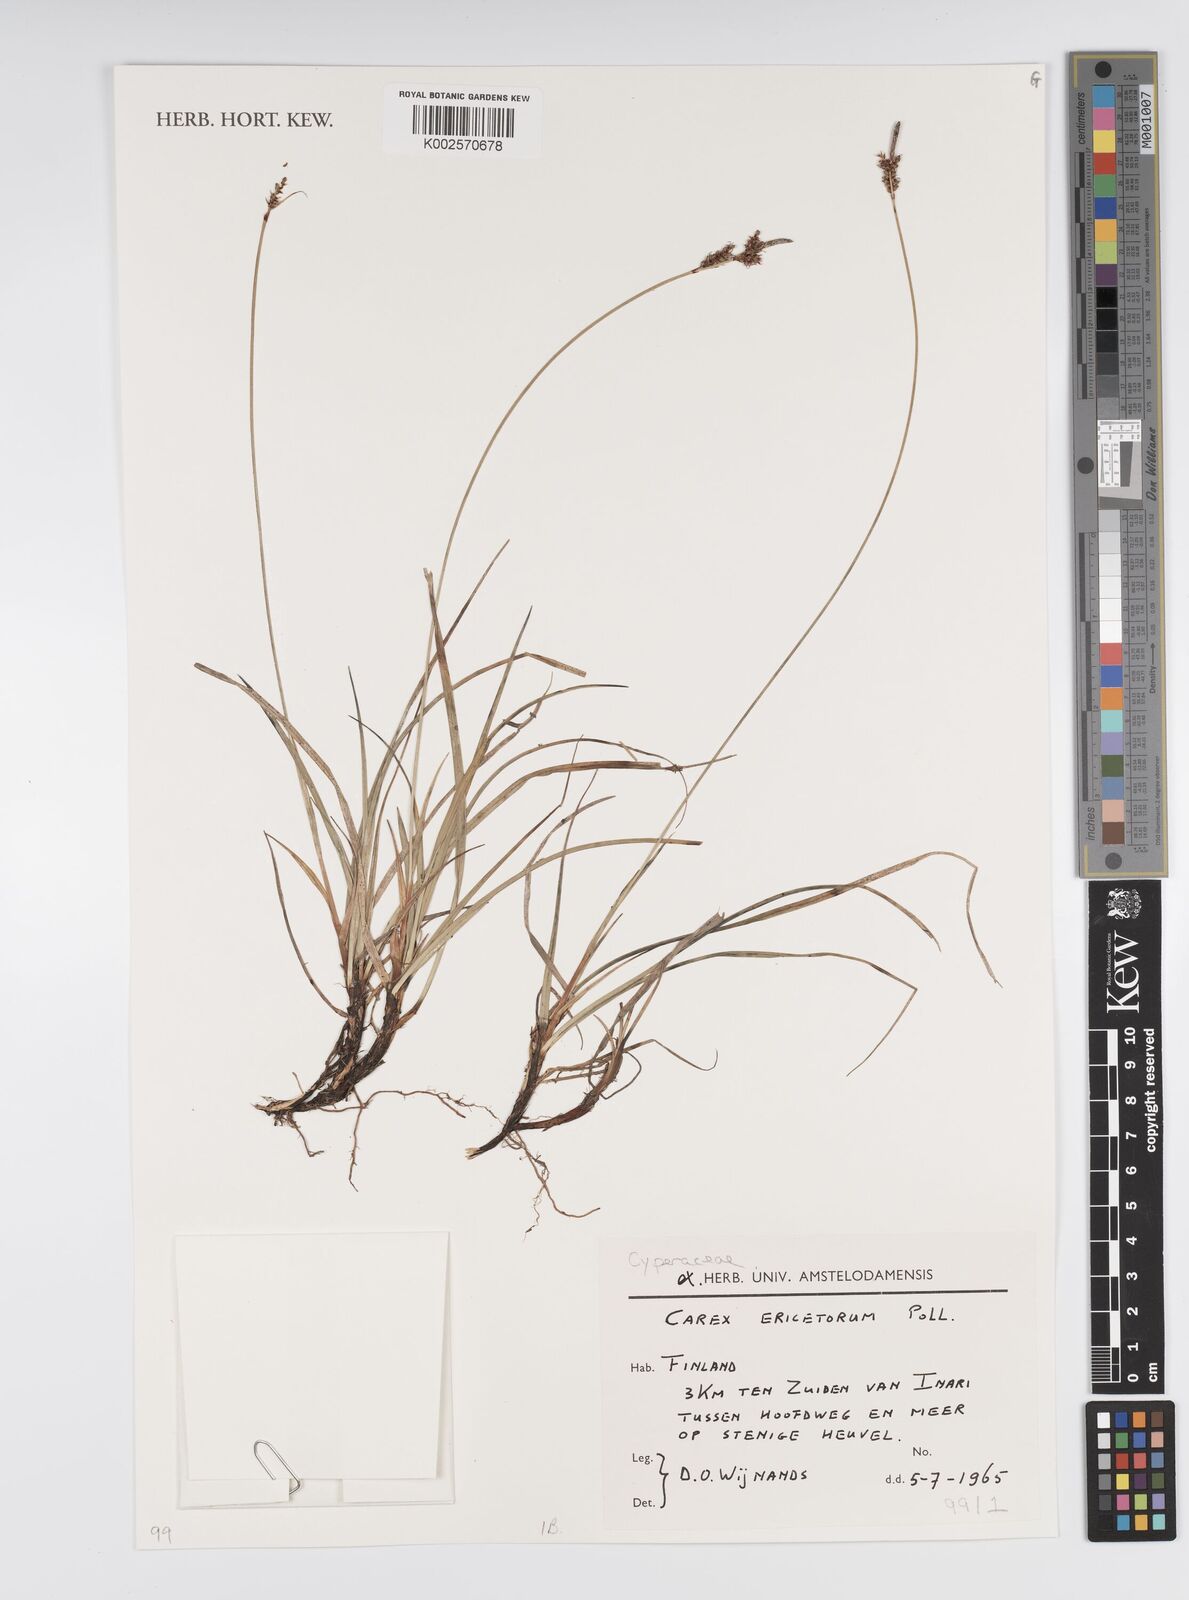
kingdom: Plantae
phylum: Tracheophyta
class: Liliopsida
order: Poales
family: Cyperaceae
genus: Carex
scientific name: Carex ericetorum
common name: Rare spring-sedge
